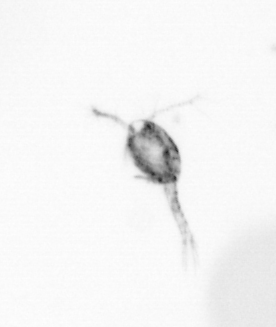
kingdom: Animalia
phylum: Arthropoda
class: Copepoda
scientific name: Copepoda
